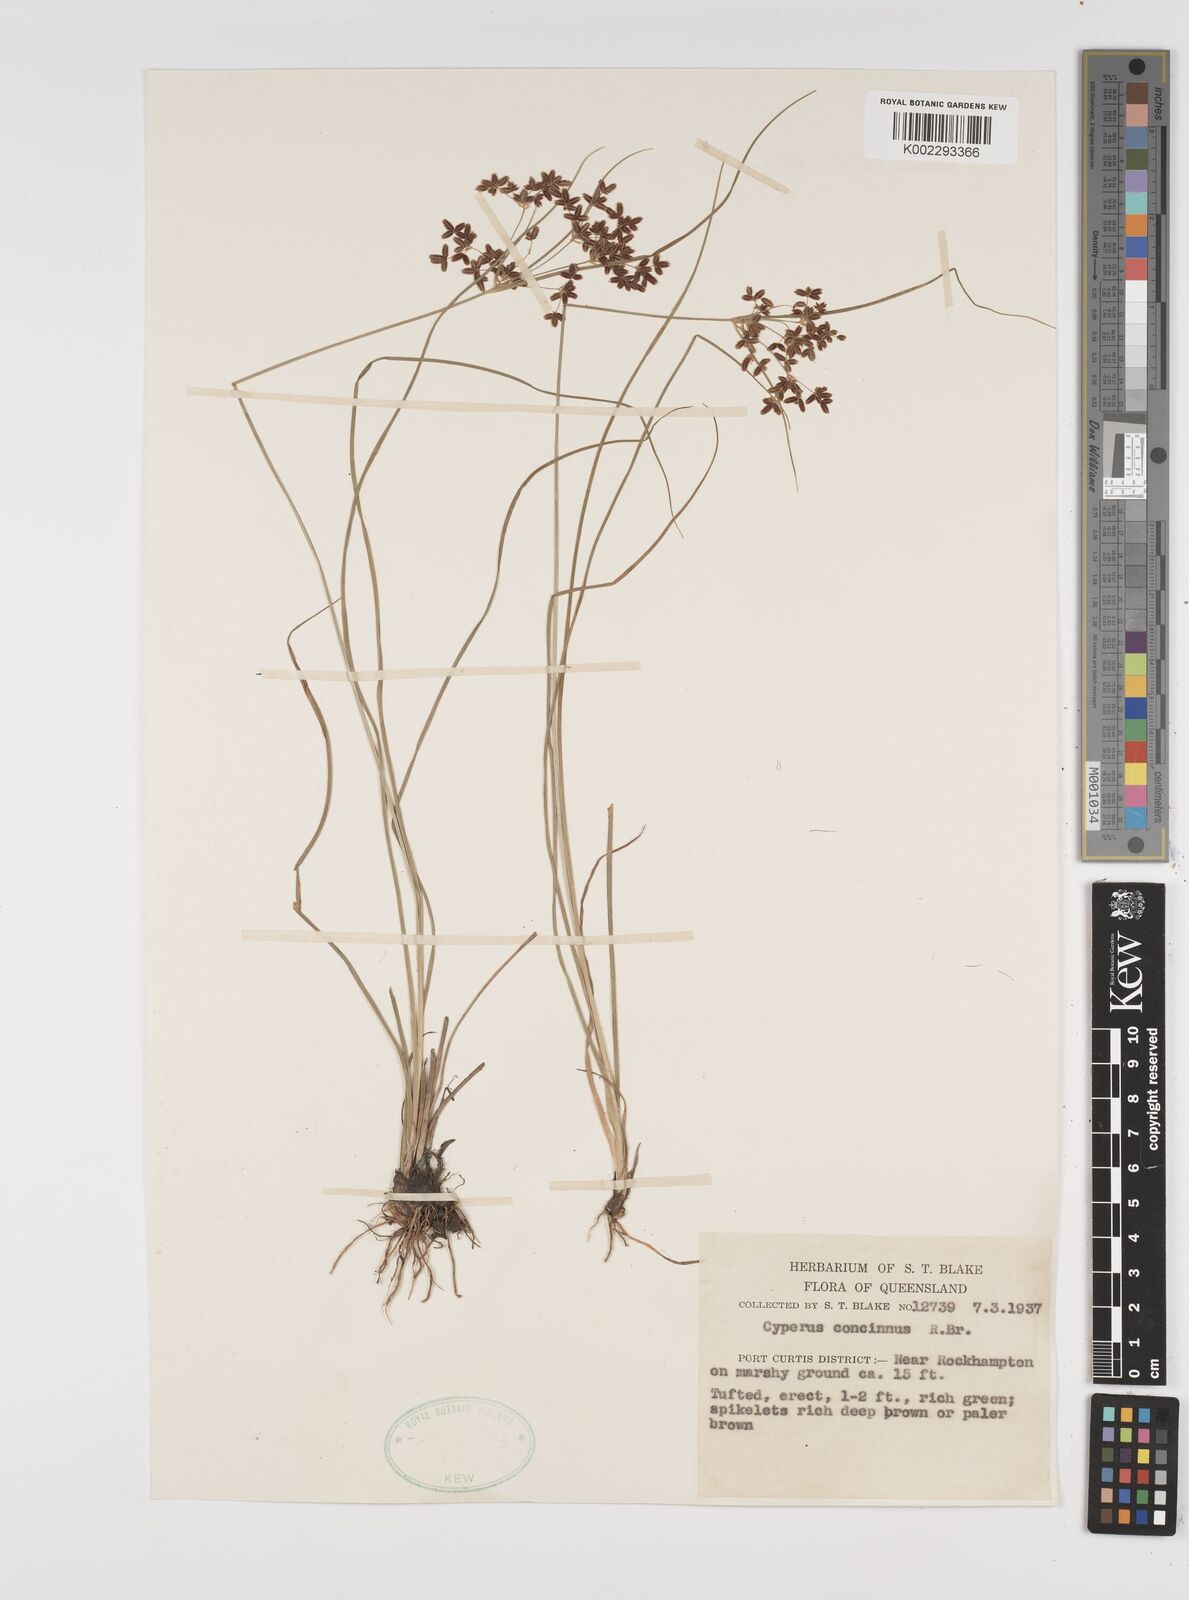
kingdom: Plantae
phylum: Tracheophyta
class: Liliopsida
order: Poales
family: Cyperaceae
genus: Cyperus
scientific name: Cyperus concinnus
